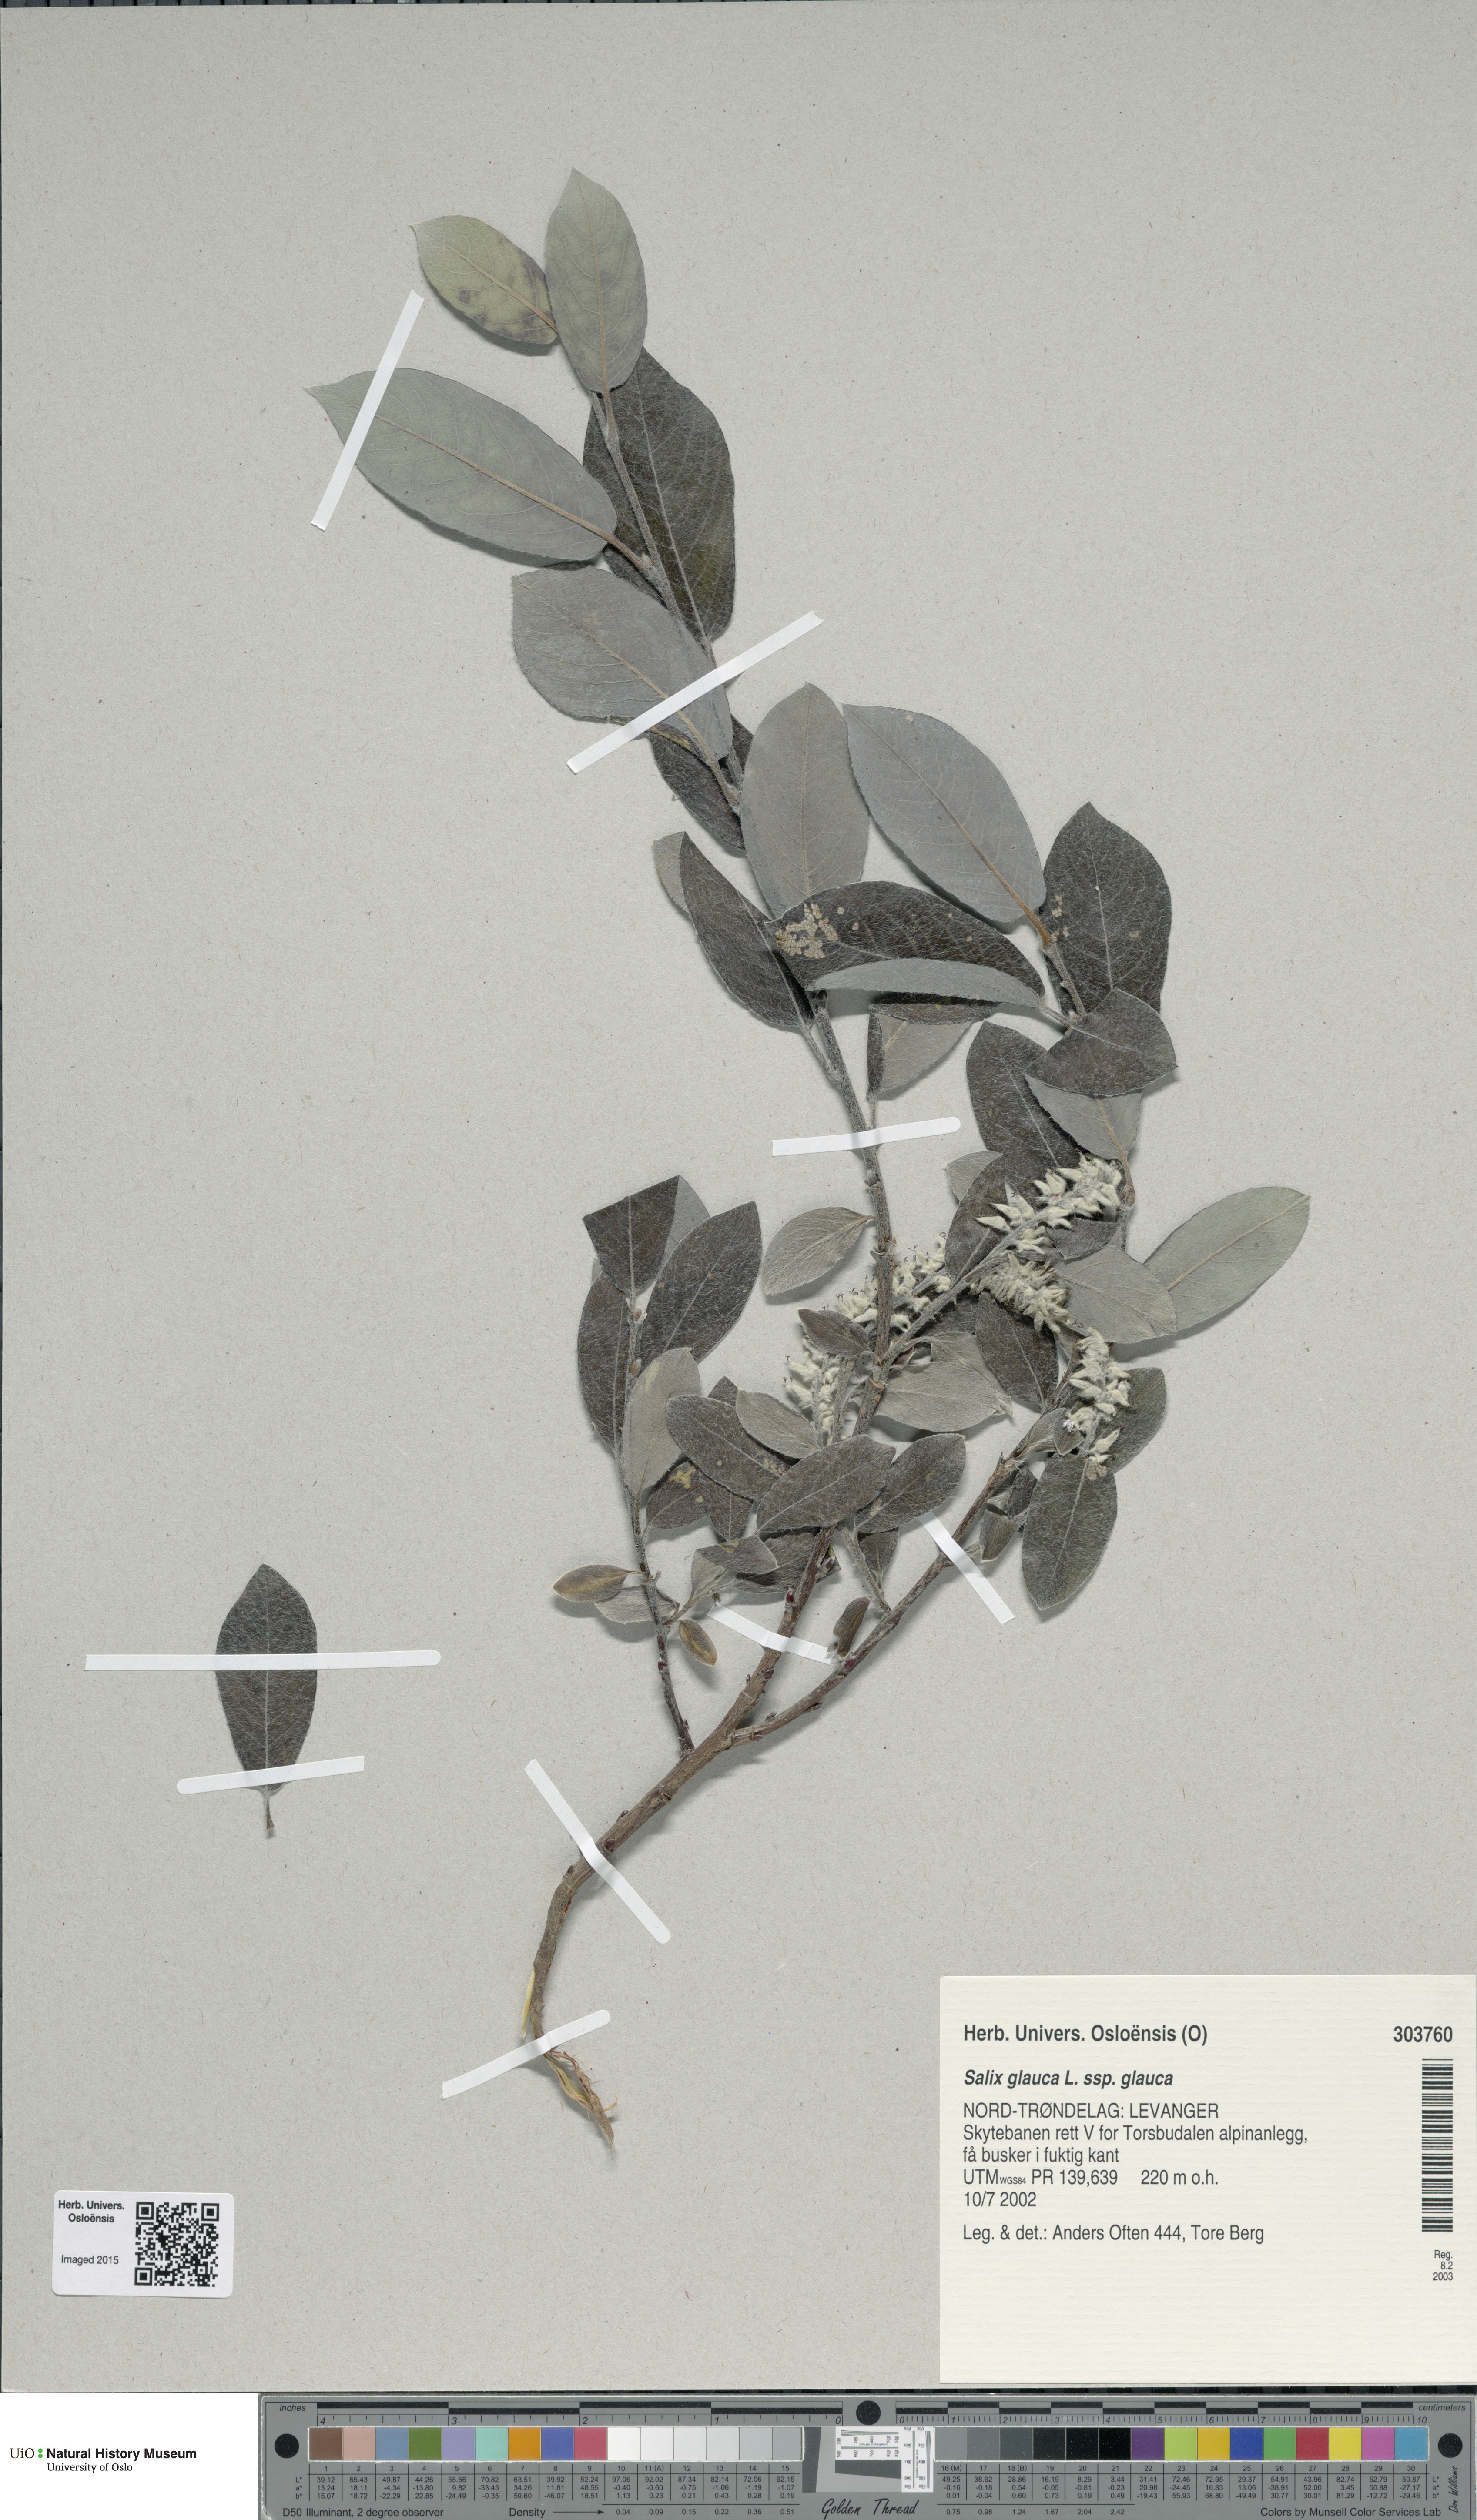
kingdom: Plantae
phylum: Tracheophyta
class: Magnoliopsida
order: Malpighiales
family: Salicaceae
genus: Salix
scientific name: Salix glauca
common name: Glaucous willow
